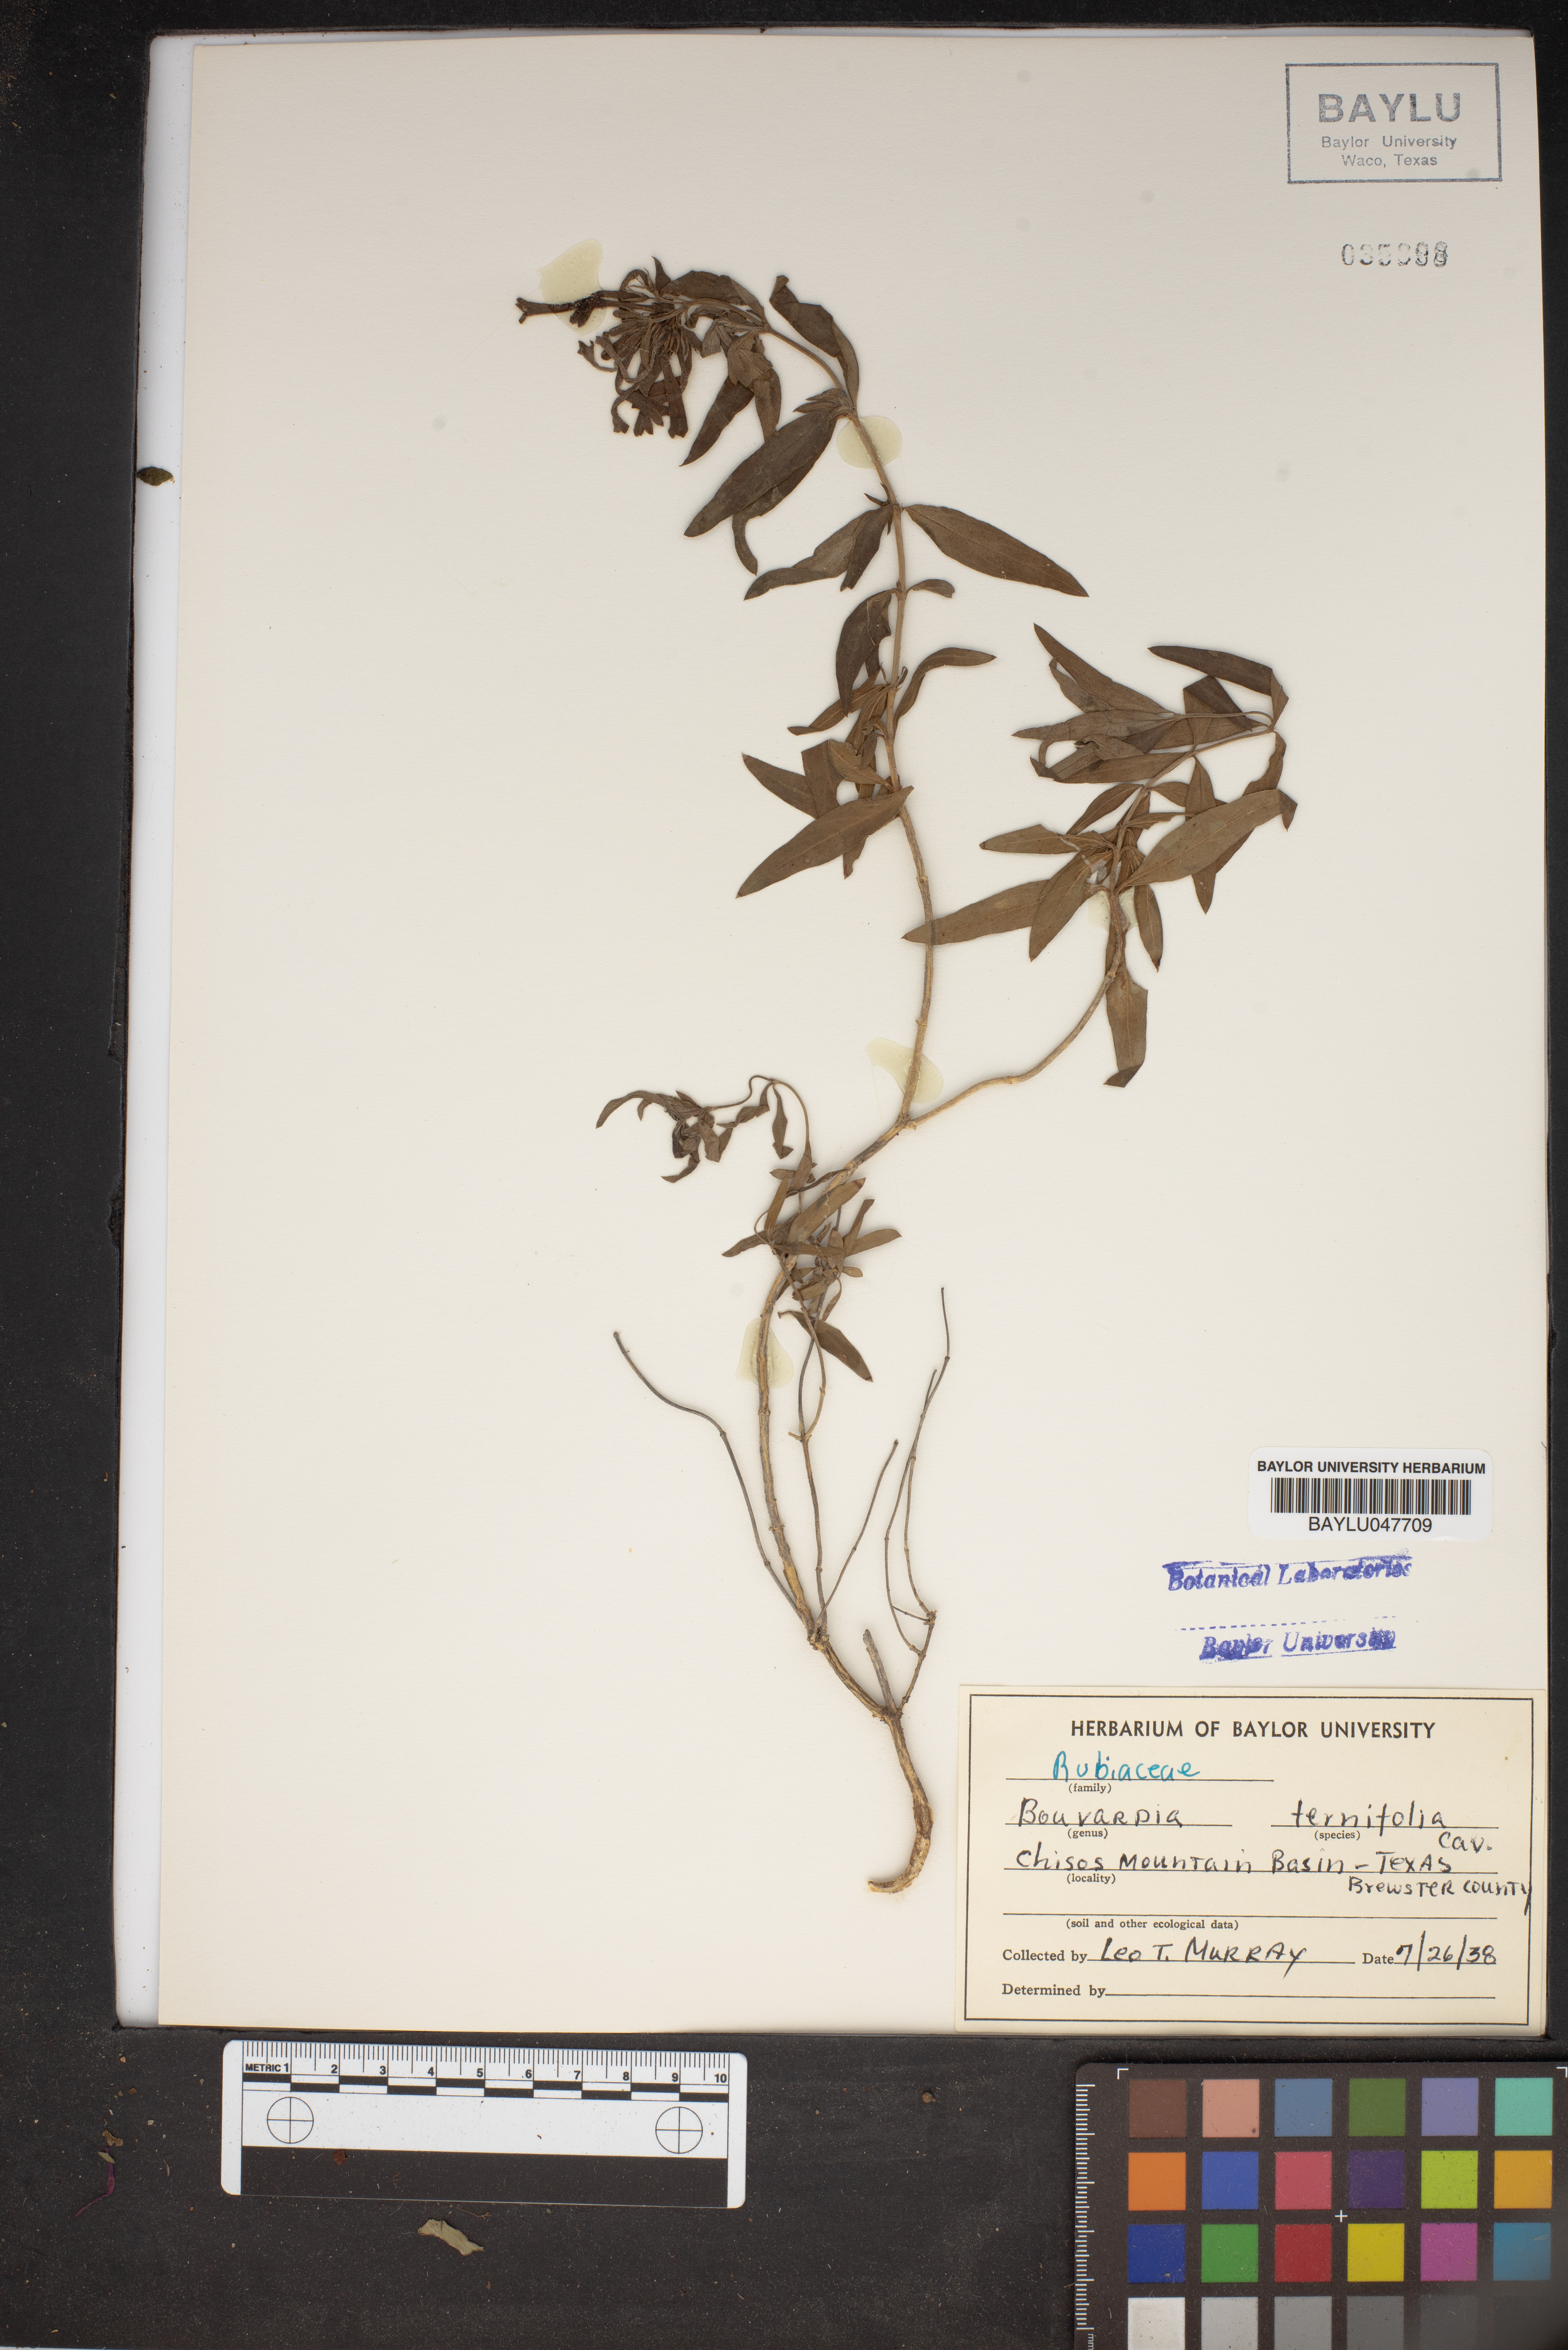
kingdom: Plantae
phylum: Tracheophyta
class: Magnoliopsida
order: Gentianales
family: Rubiaceae
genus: Bouvardia
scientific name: Bouvardia ternifolia
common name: Scarlet bouvardia
